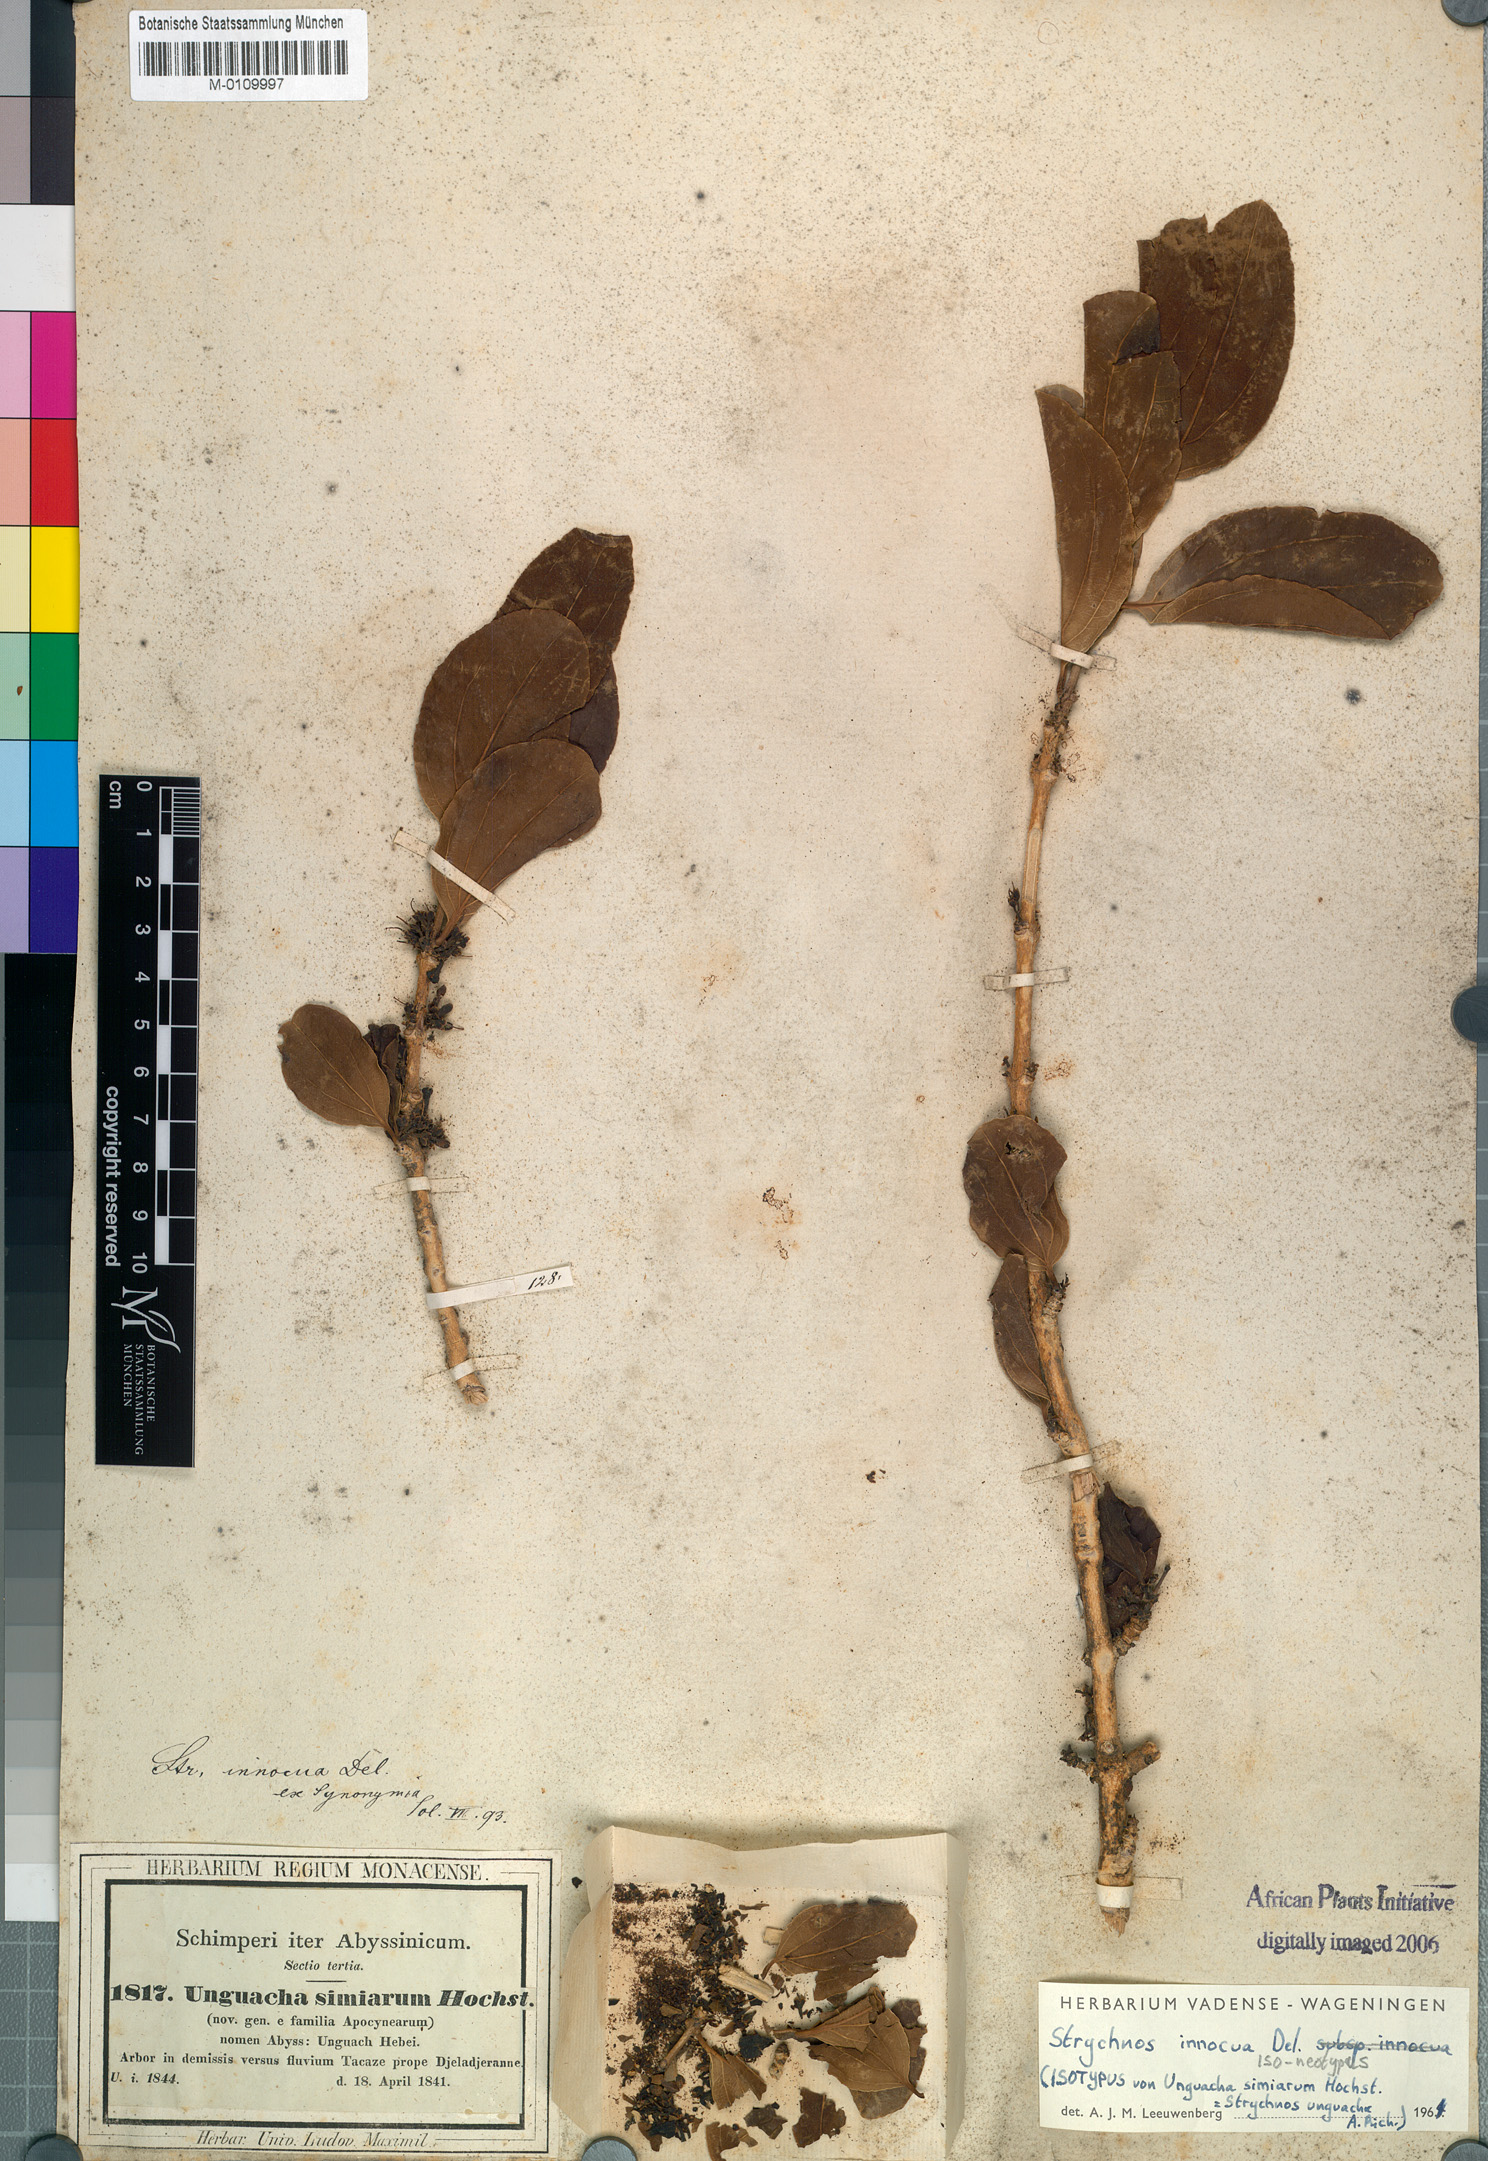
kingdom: Plantae
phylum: Tracheophyta
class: Magnoliopsida
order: Gentianales
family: Loganiaceae
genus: Strychnos
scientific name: Strychnos innocua
